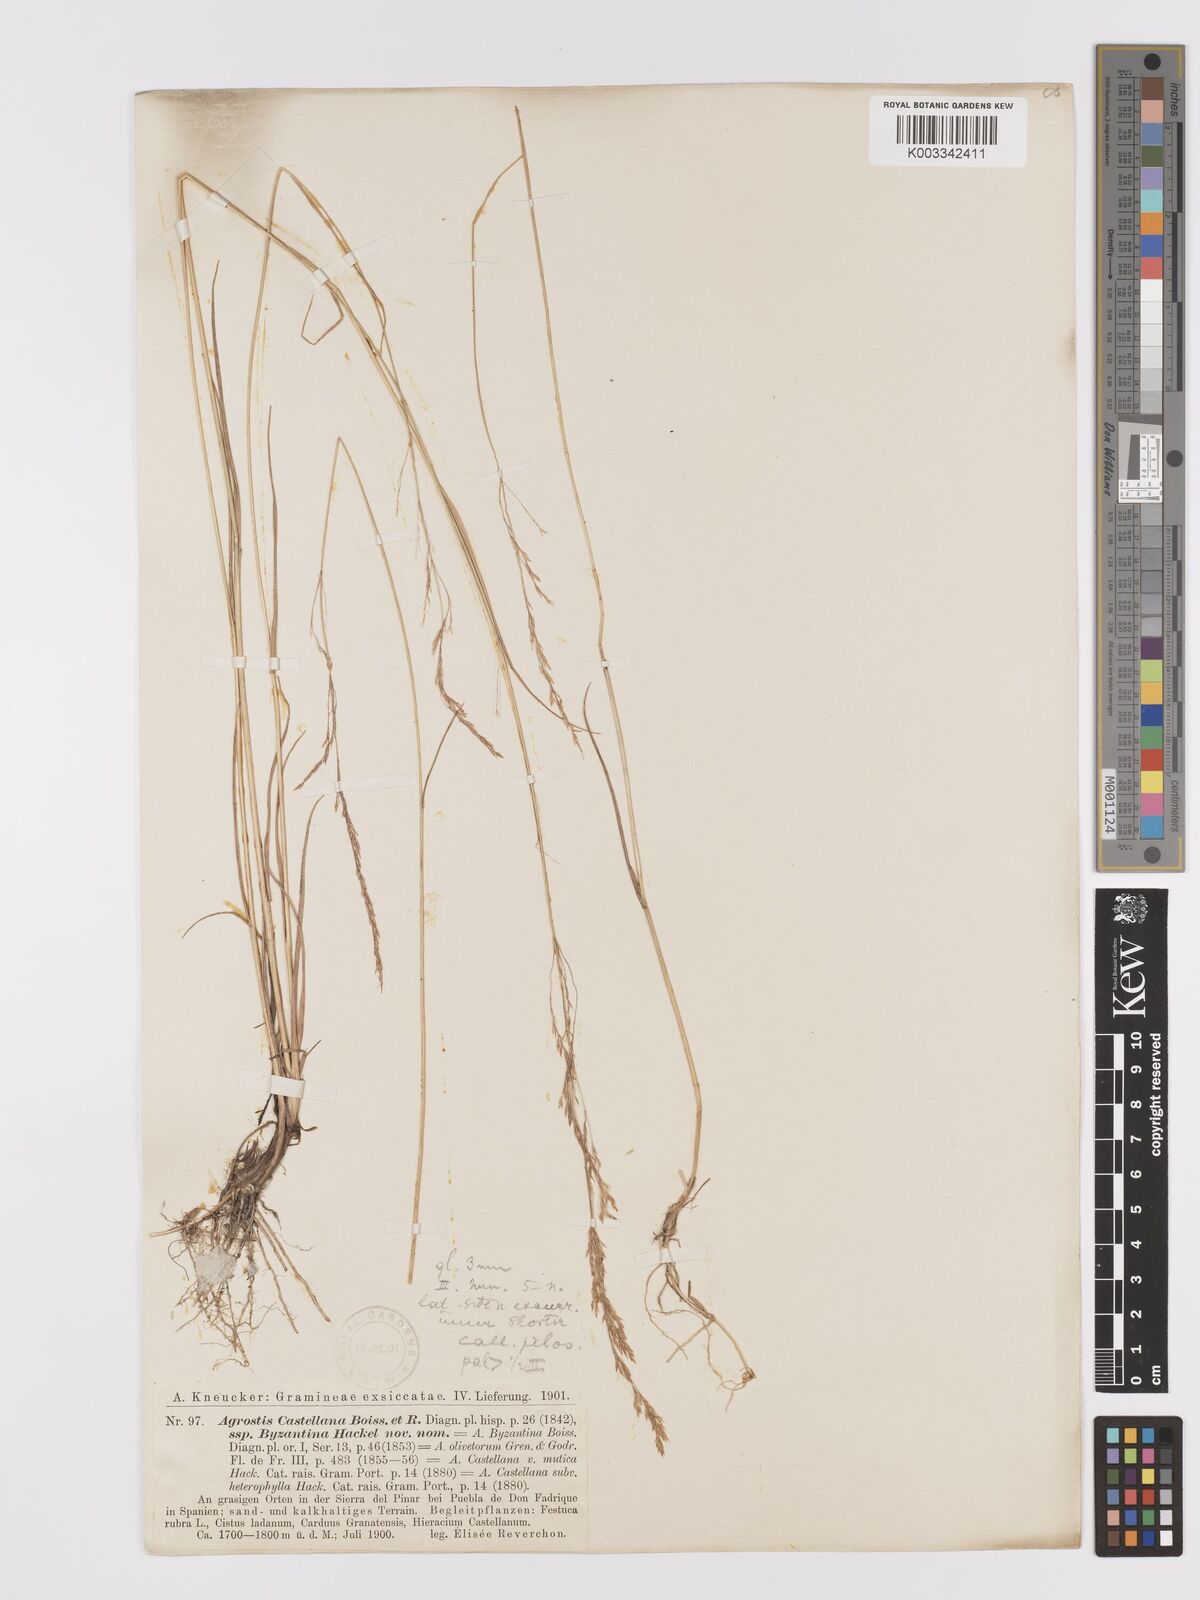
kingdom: Plantae
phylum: Tracheophyta
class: Liliopsida
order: Poales
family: Poaceae
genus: Agrostis
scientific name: Agrostis castellana
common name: Highland bent
